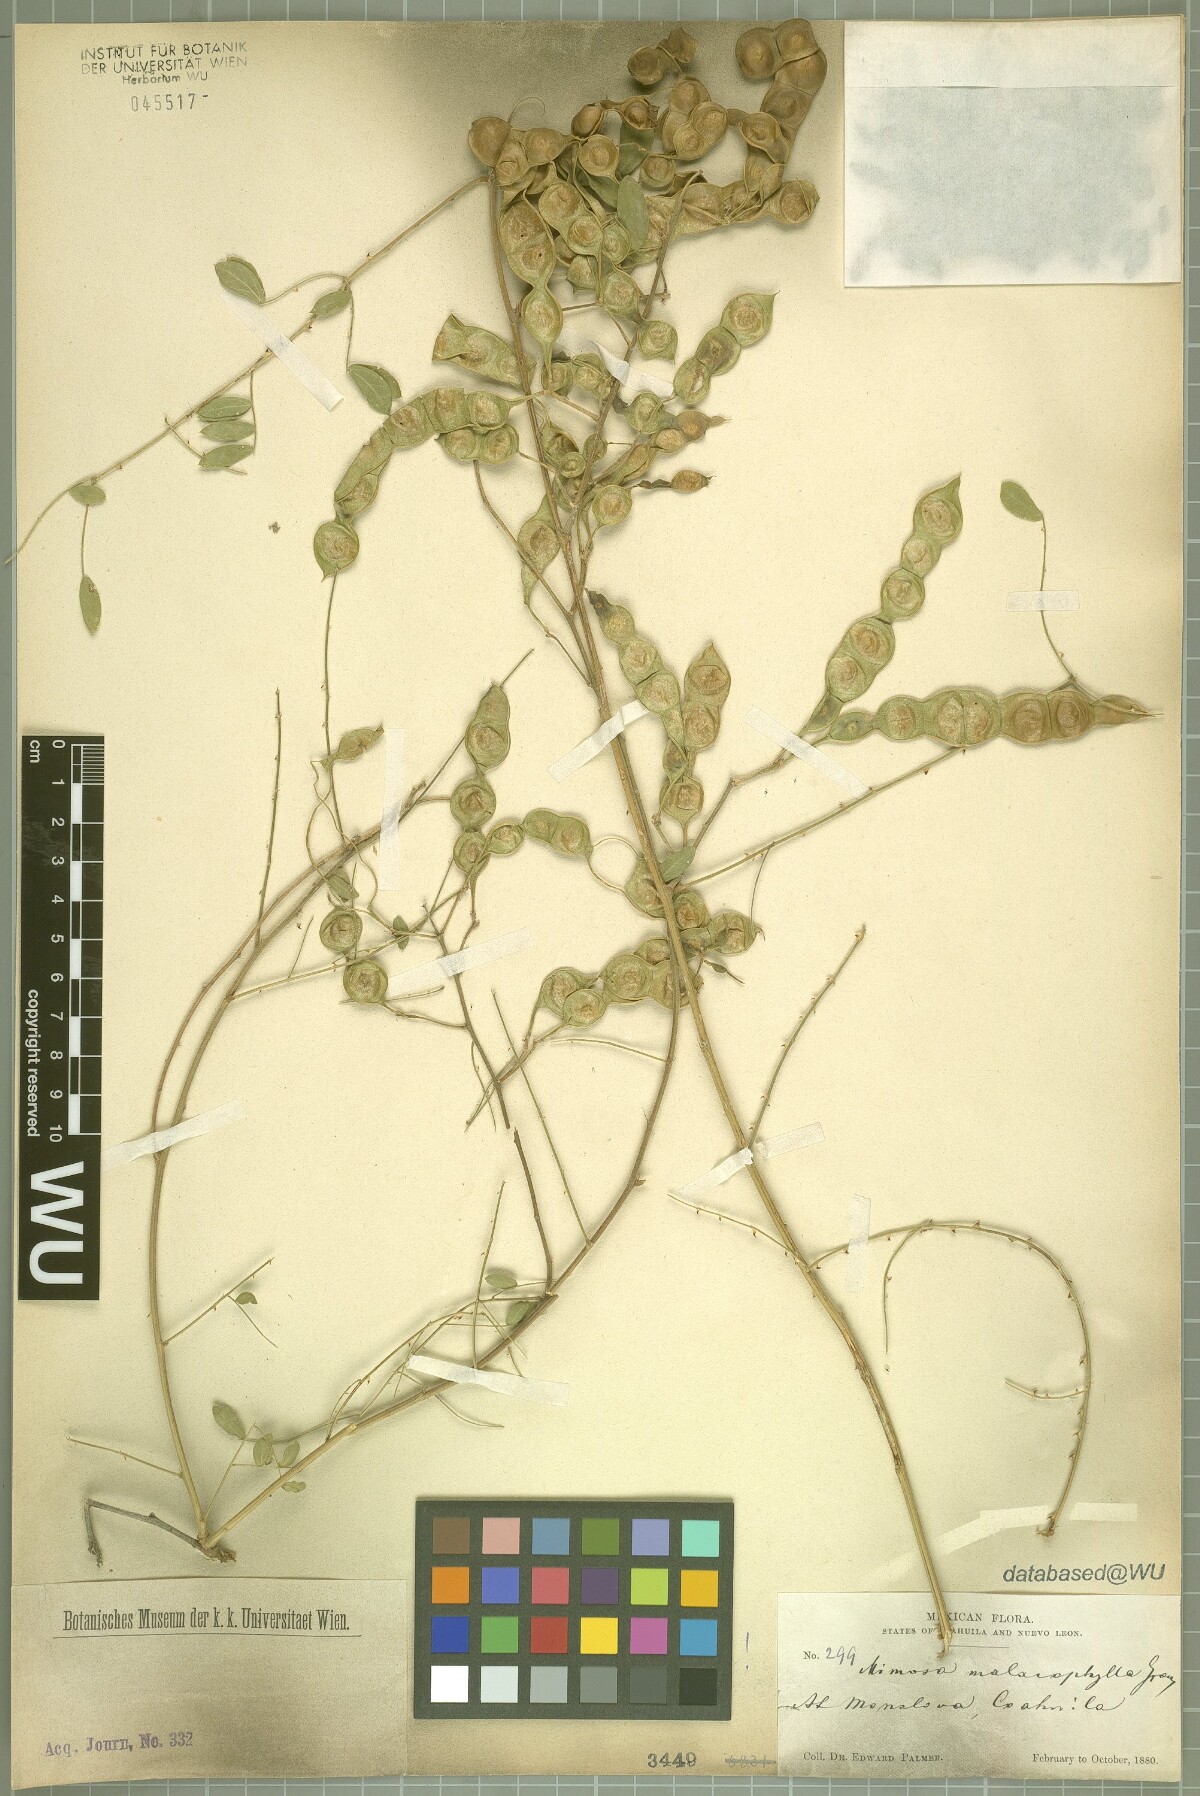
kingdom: Plantae
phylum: Tracheophyta
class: Magnoliopsida
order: Fabales
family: Fabaceae
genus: Mimosa
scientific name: Mimosa malacophylla
